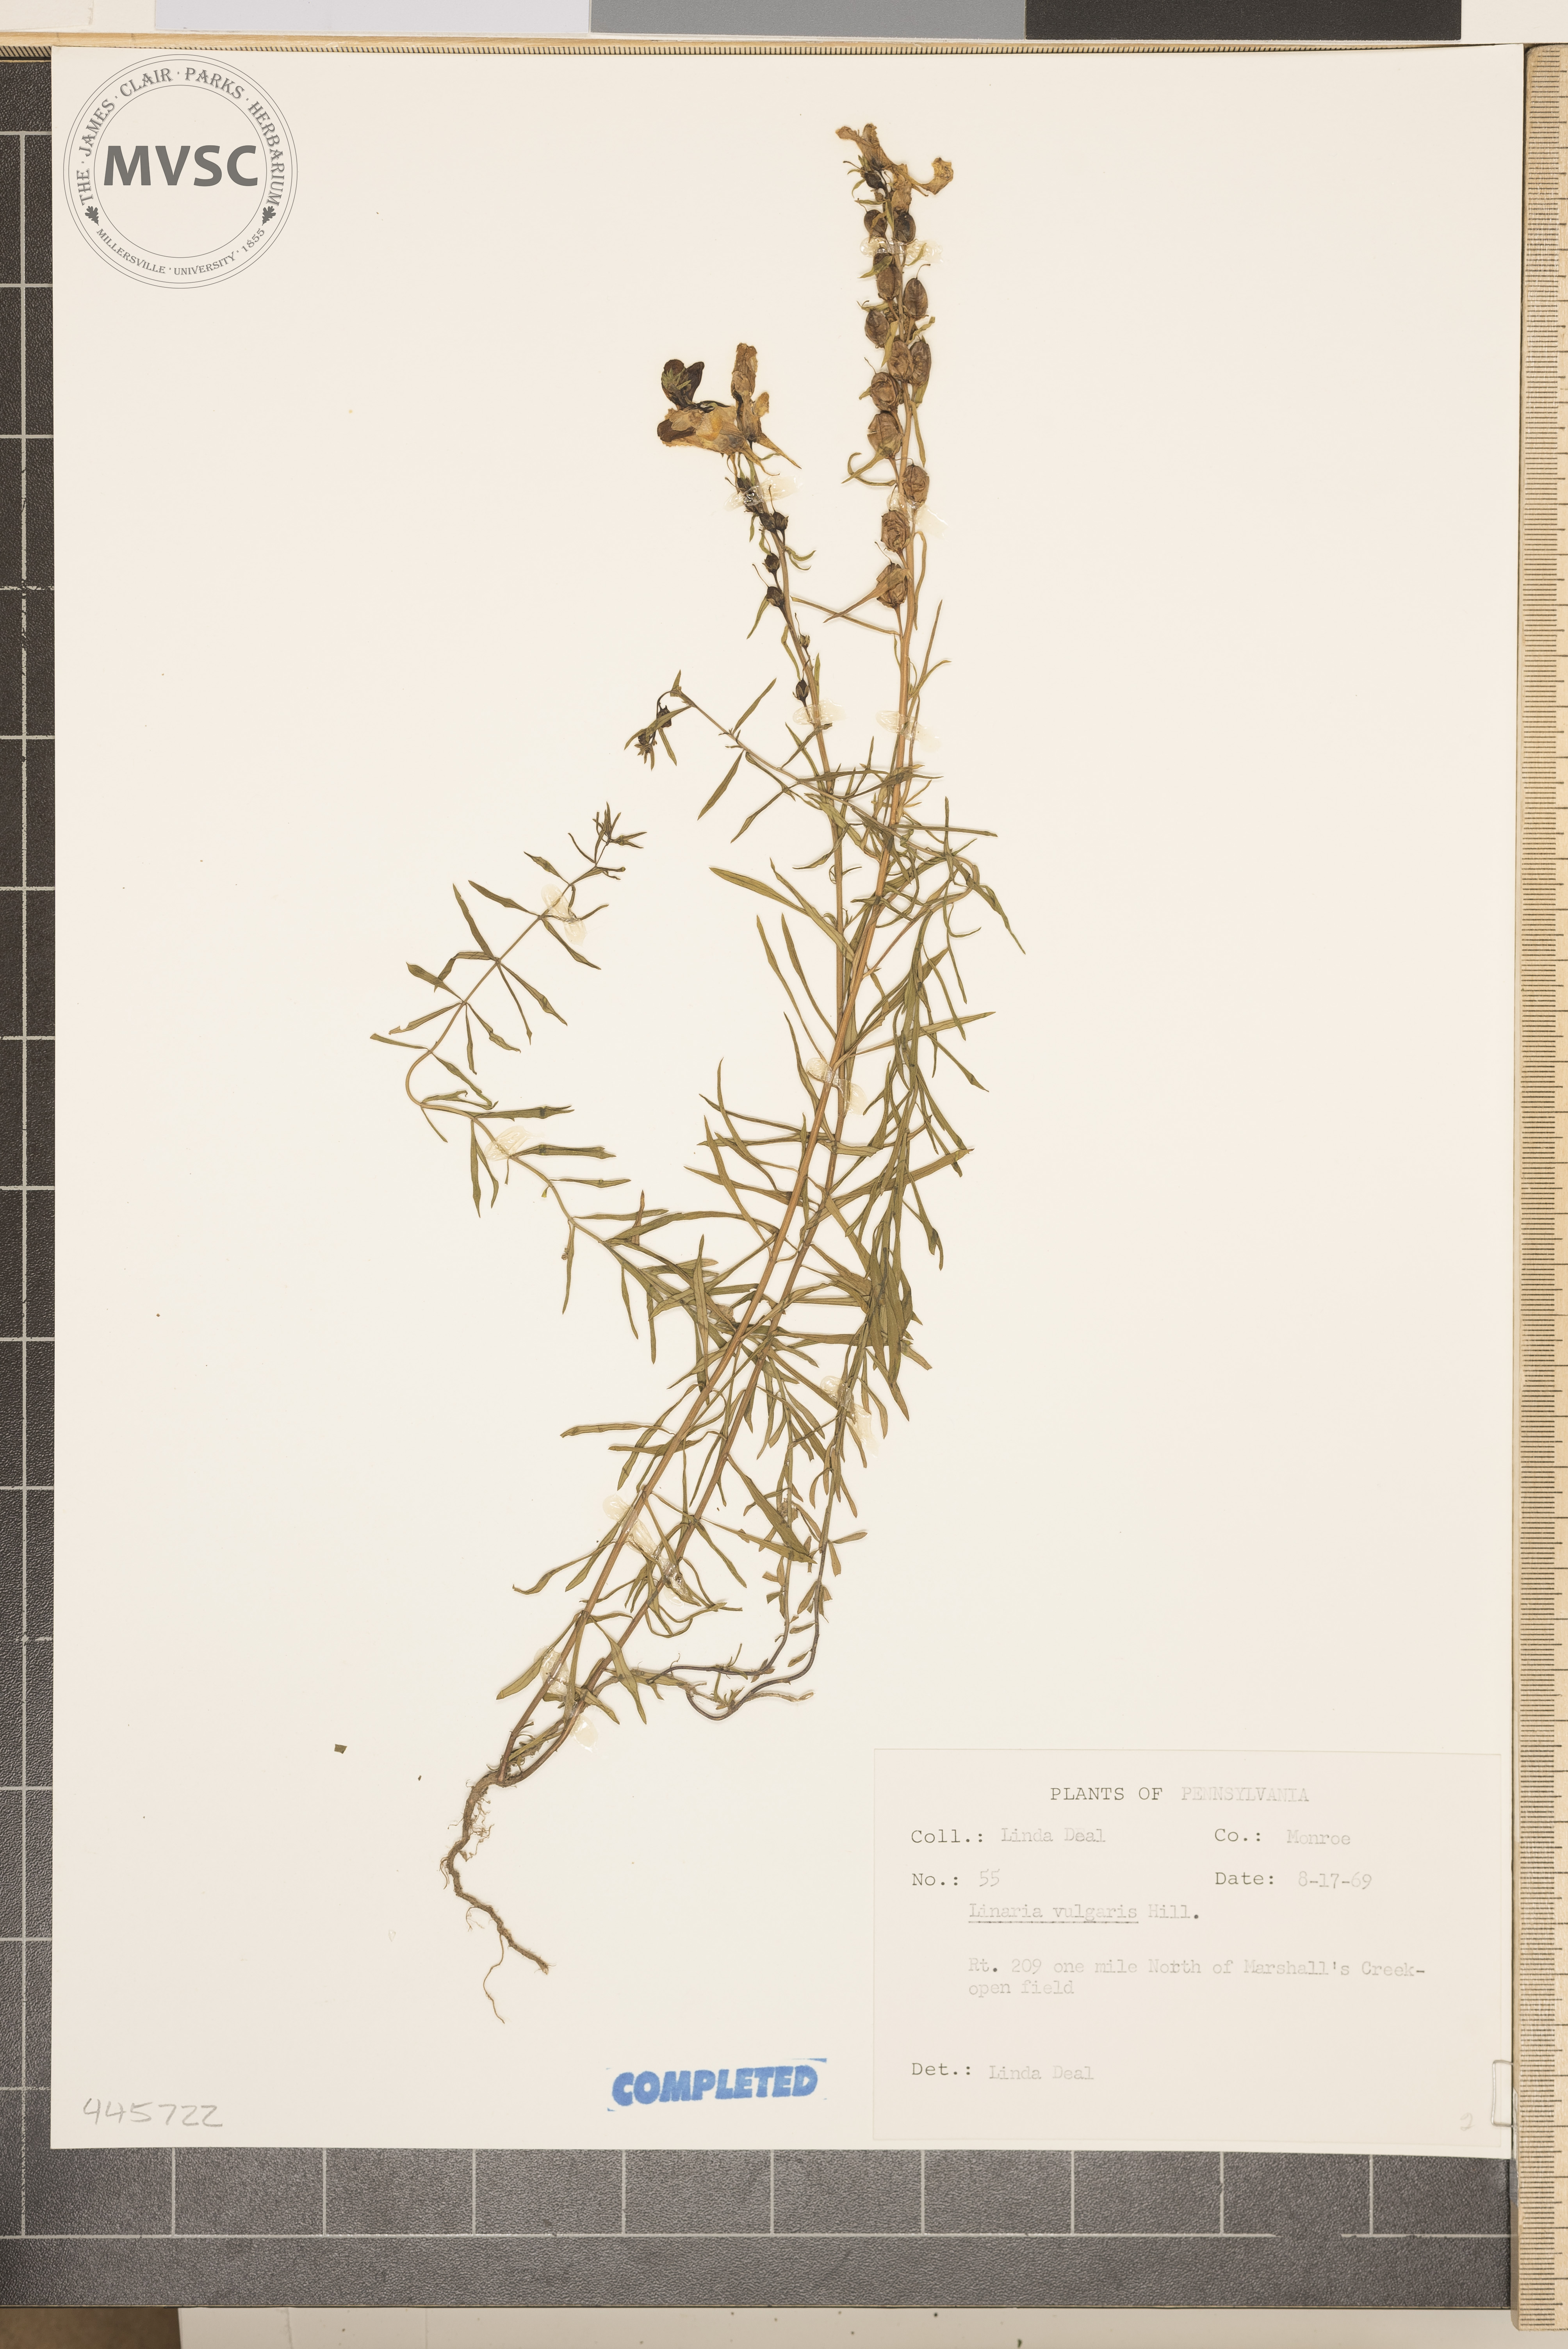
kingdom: Plantae
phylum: Tracheophyta
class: Magnoliopsida
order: Lamiales
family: Plantaginaceae
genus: Linaria
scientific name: Linaria vulgaris
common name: Butter and eggs
